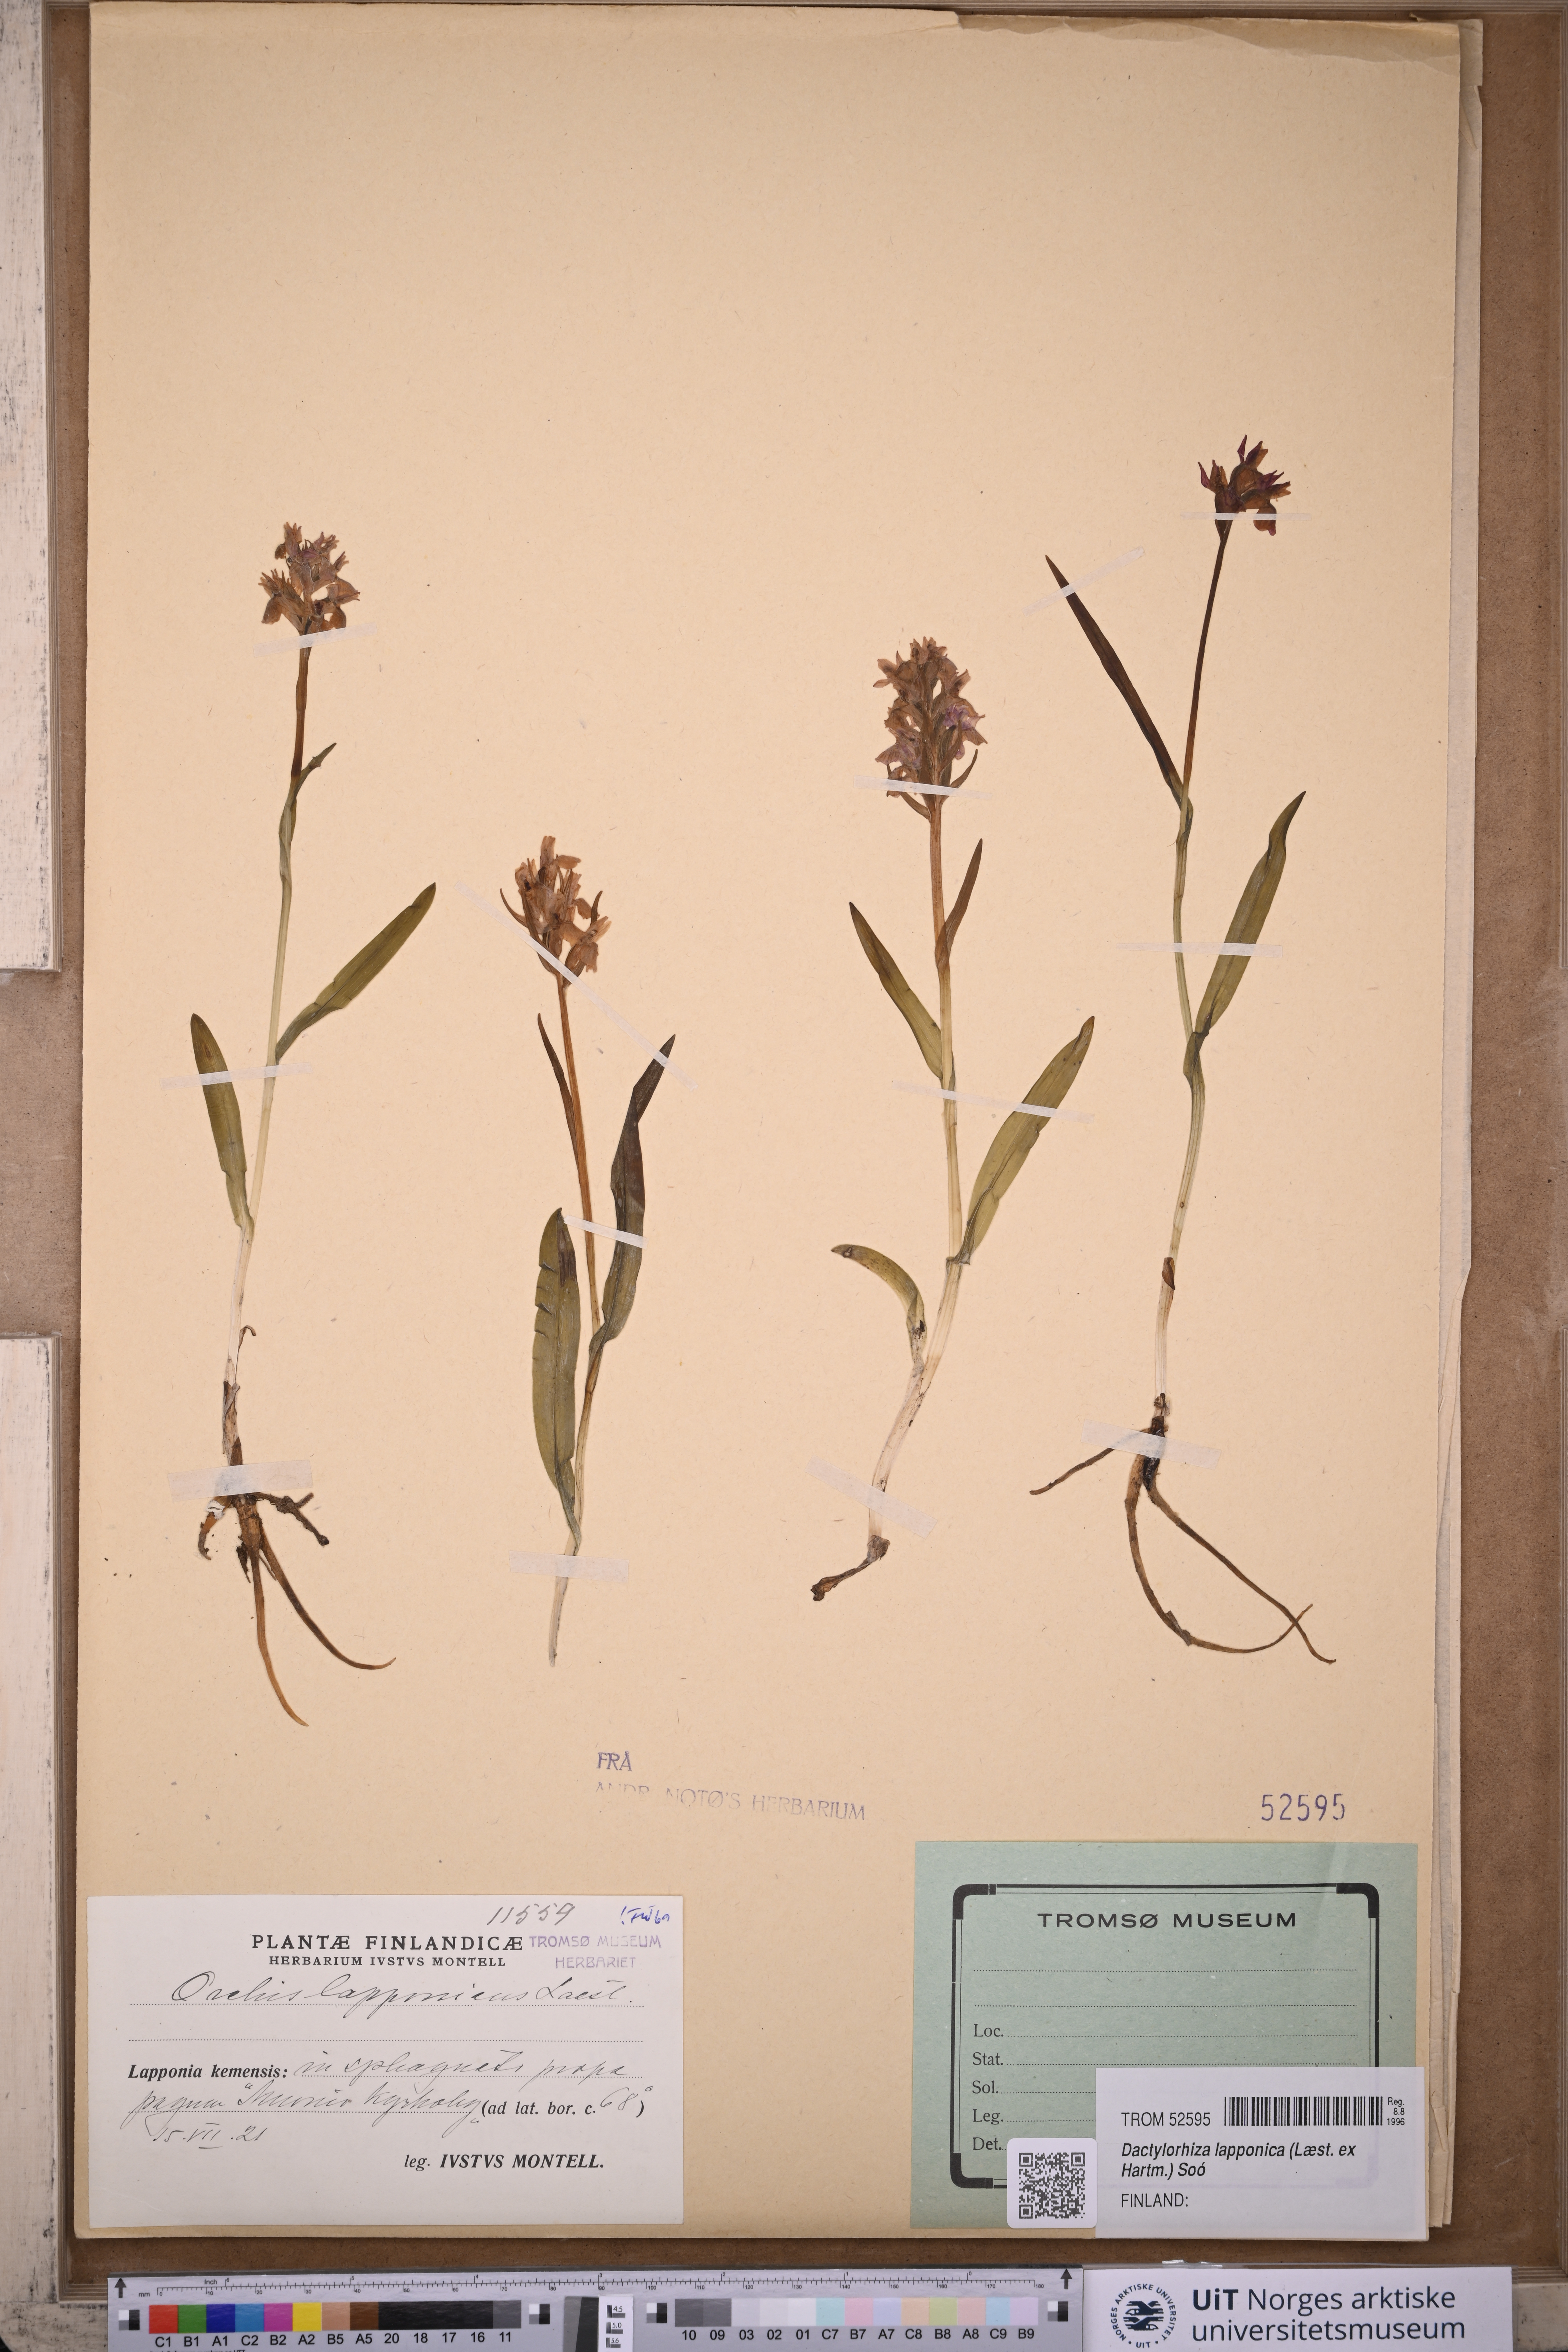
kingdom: Plantae
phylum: Tracheophyta
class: Liliopsida
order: Asparagales
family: Orchidaceae
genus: Dactylorhiza
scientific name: Dactylorhiza majalis
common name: Marsh orchid
